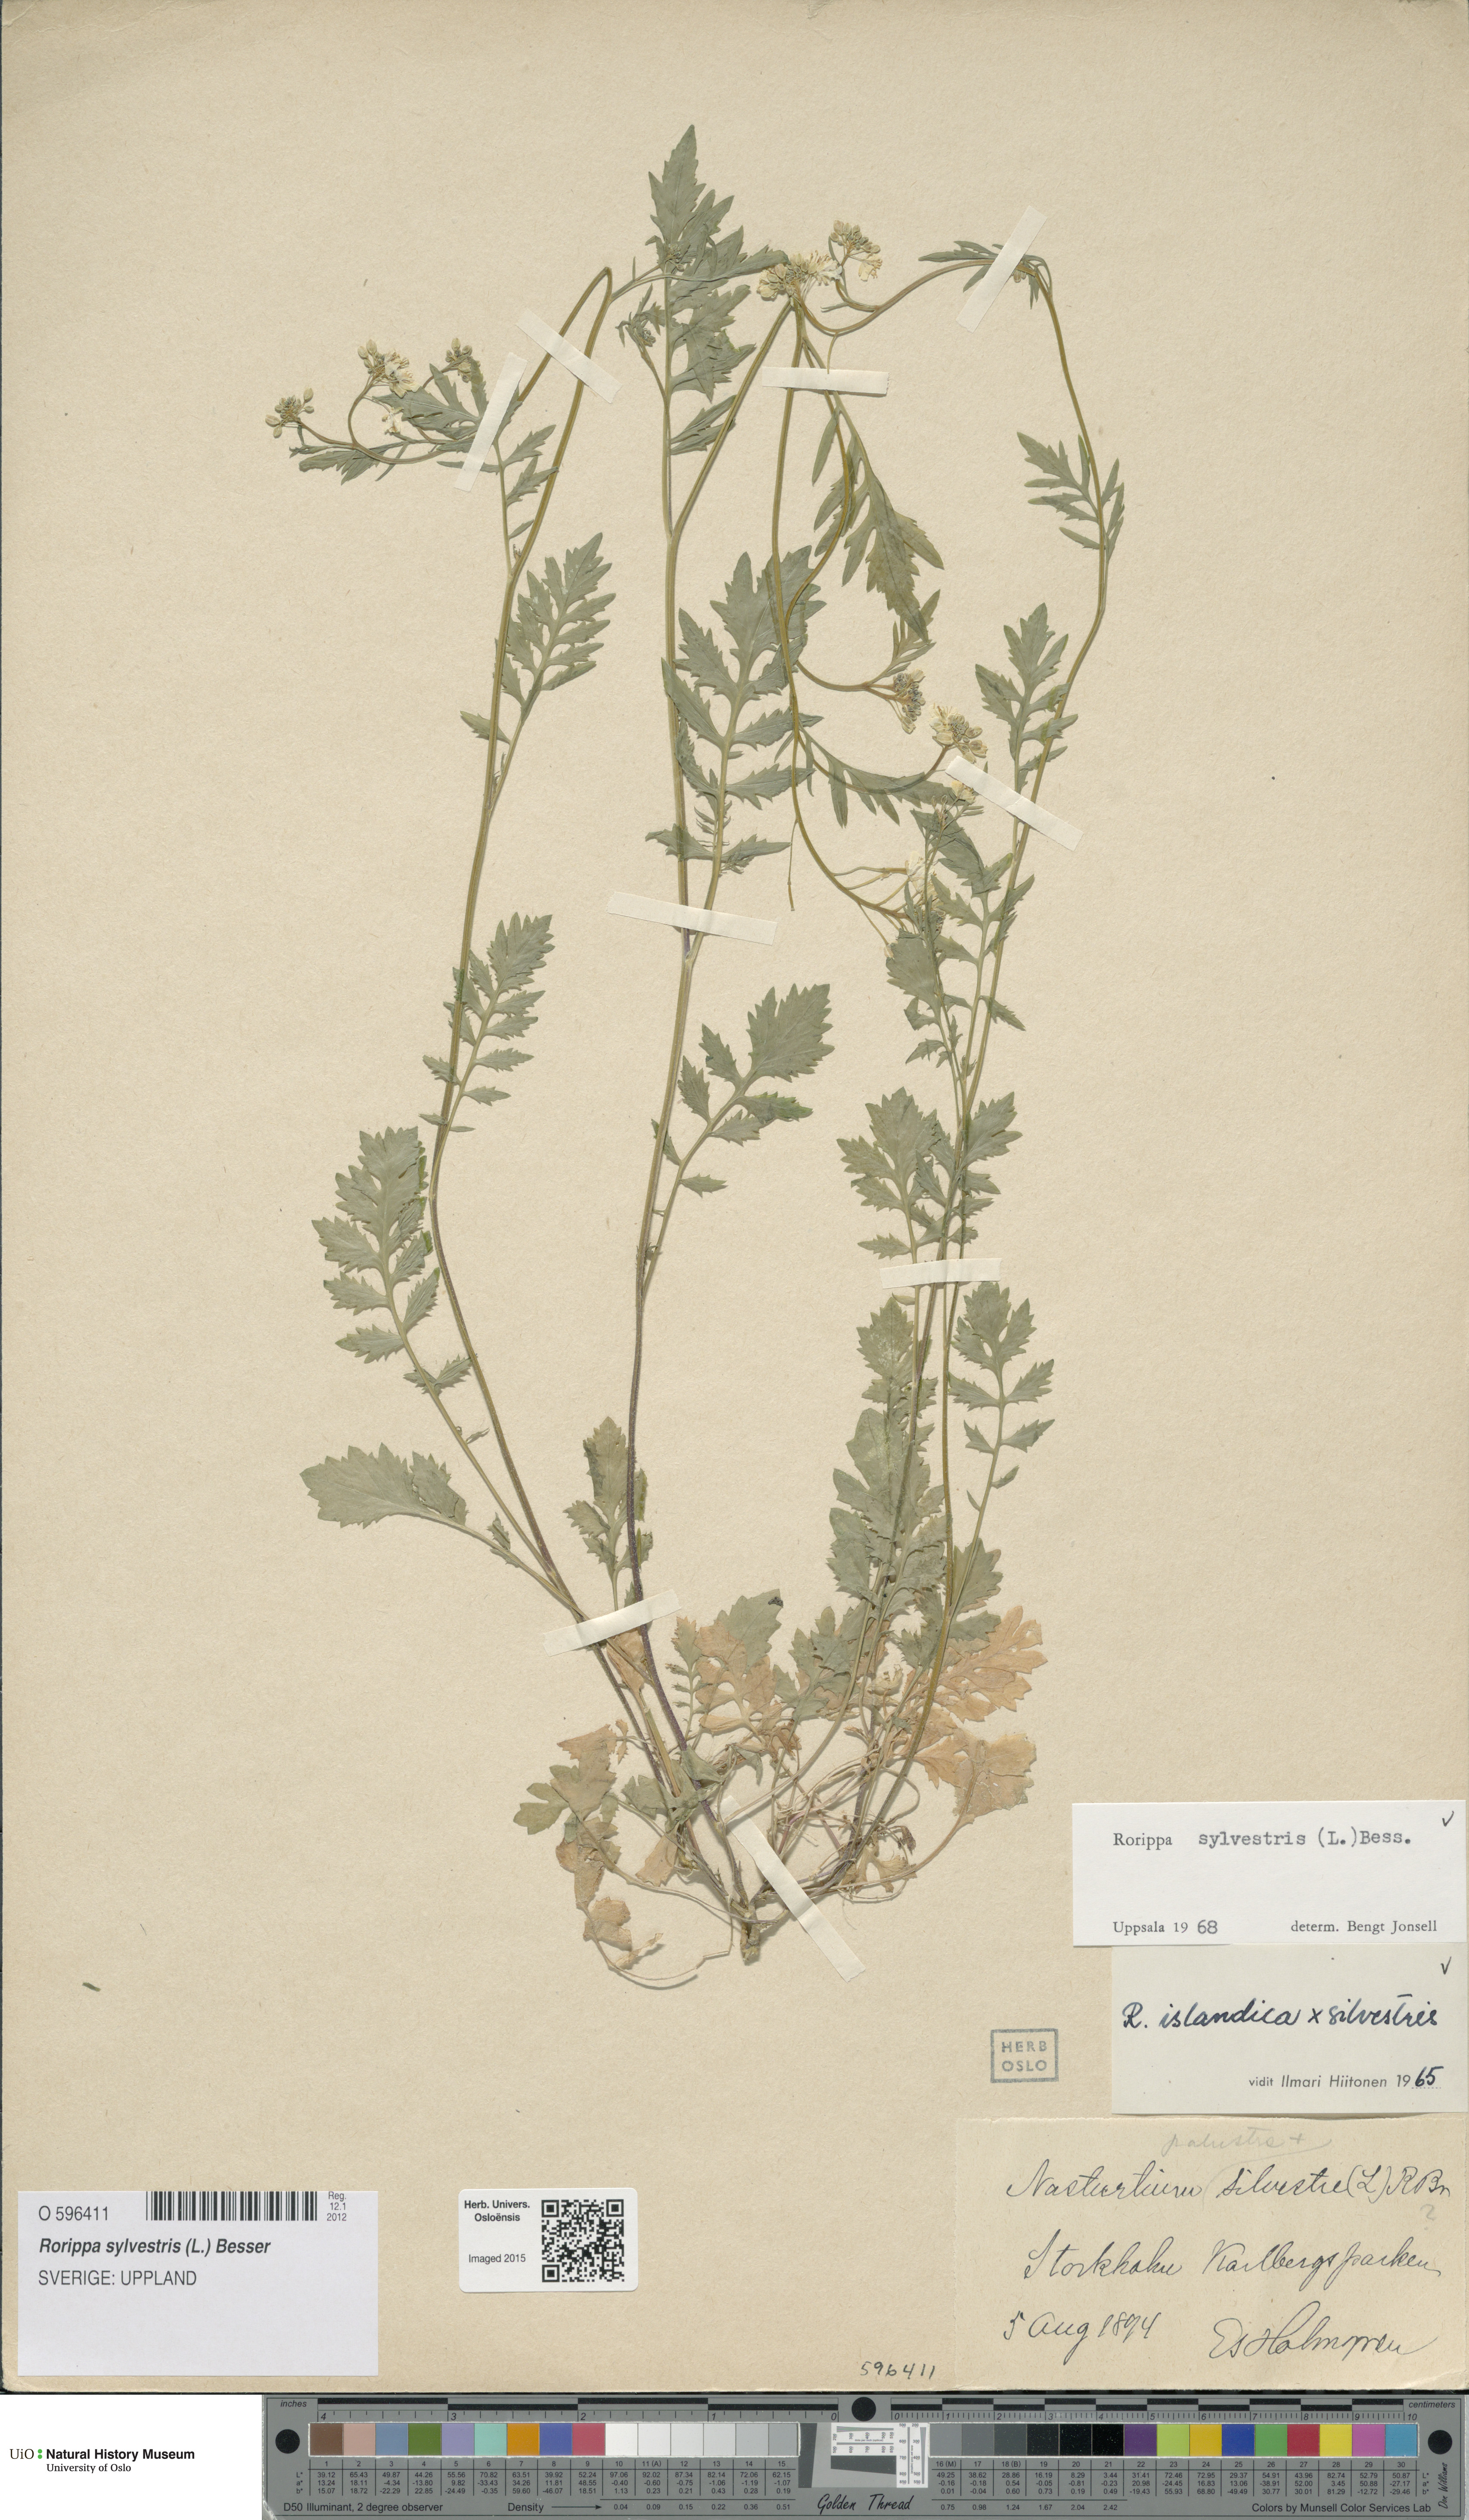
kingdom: Plantae
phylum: Tracheophyta
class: Magnoliopsida
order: Brassicales
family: Brassicaceae
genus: Rorippa
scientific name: Rorippa sylvestris
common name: Creeping yellowcress
